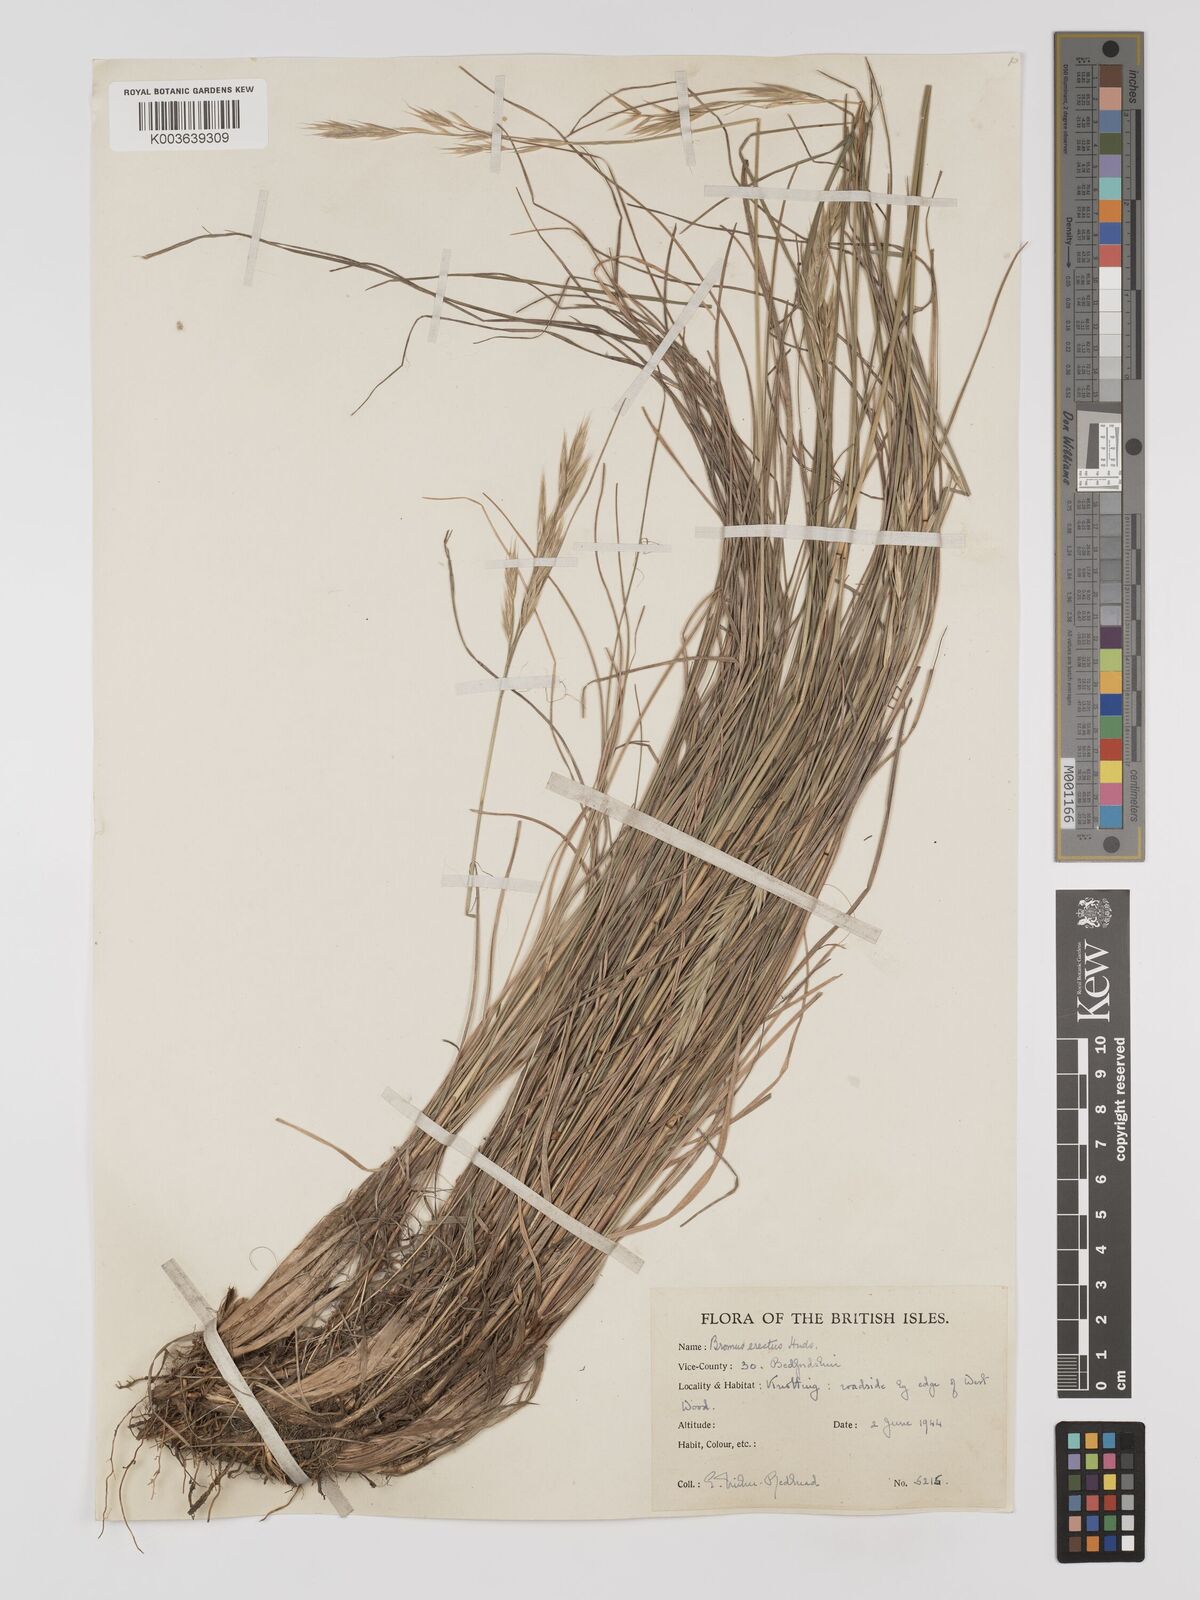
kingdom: Plantae
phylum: Tracheophyta
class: Liliopsida
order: Poales
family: Poaceae
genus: Bromus
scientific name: Bromus erectus
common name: Erect brome
